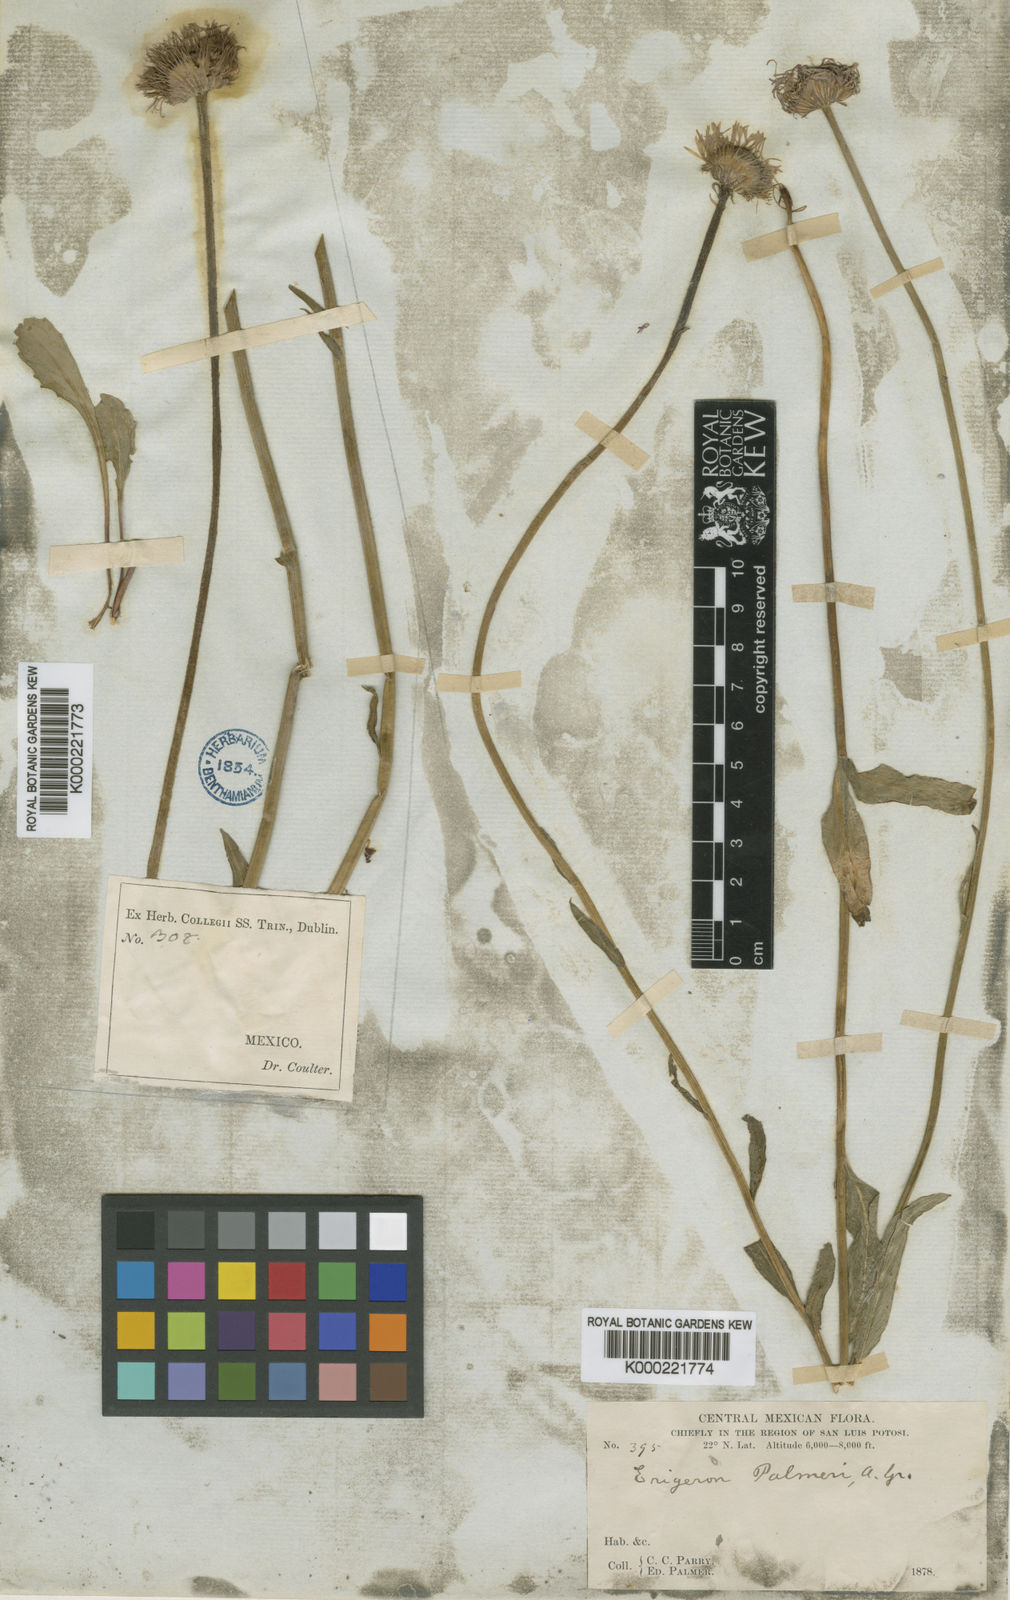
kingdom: Plantae
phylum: Tracheophyta
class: Magnoliopsida
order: Asterales
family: Asteraceae
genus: Erigeron
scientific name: Erigeron palmeri
